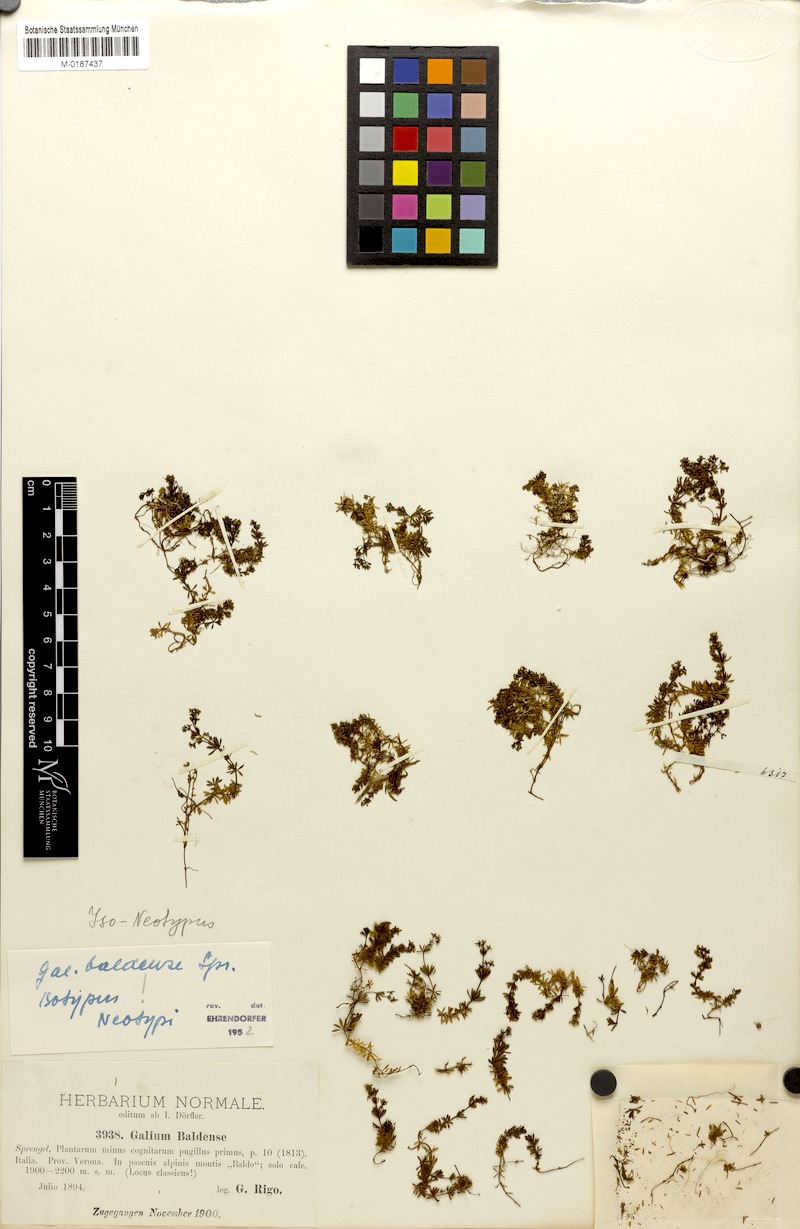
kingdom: Plantae
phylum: Tracheophyta
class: Magnoliopsida
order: Gentianales
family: Rubiaceae
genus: Galium
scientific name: Galium baldense
